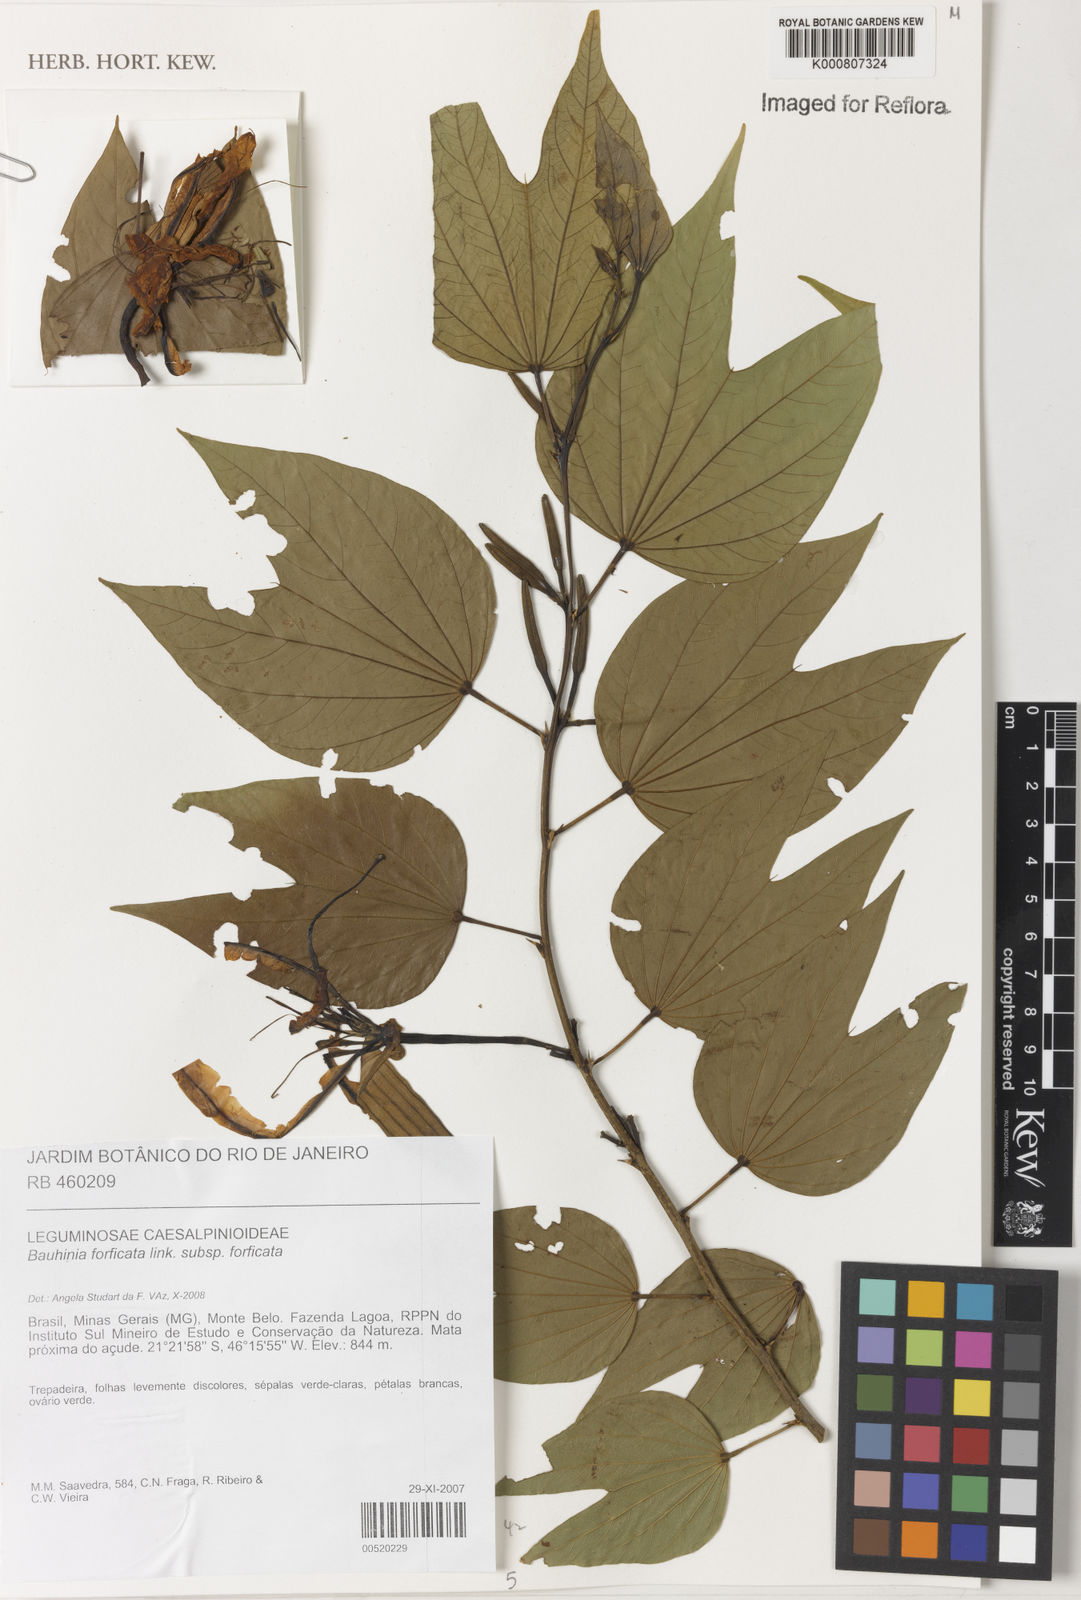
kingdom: Plantae
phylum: Tracheophyta
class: Magnoliopsida
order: Fabales
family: Fabaceae
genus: Bauhinia
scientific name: Bauhinia forficata
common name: Orchid tree
